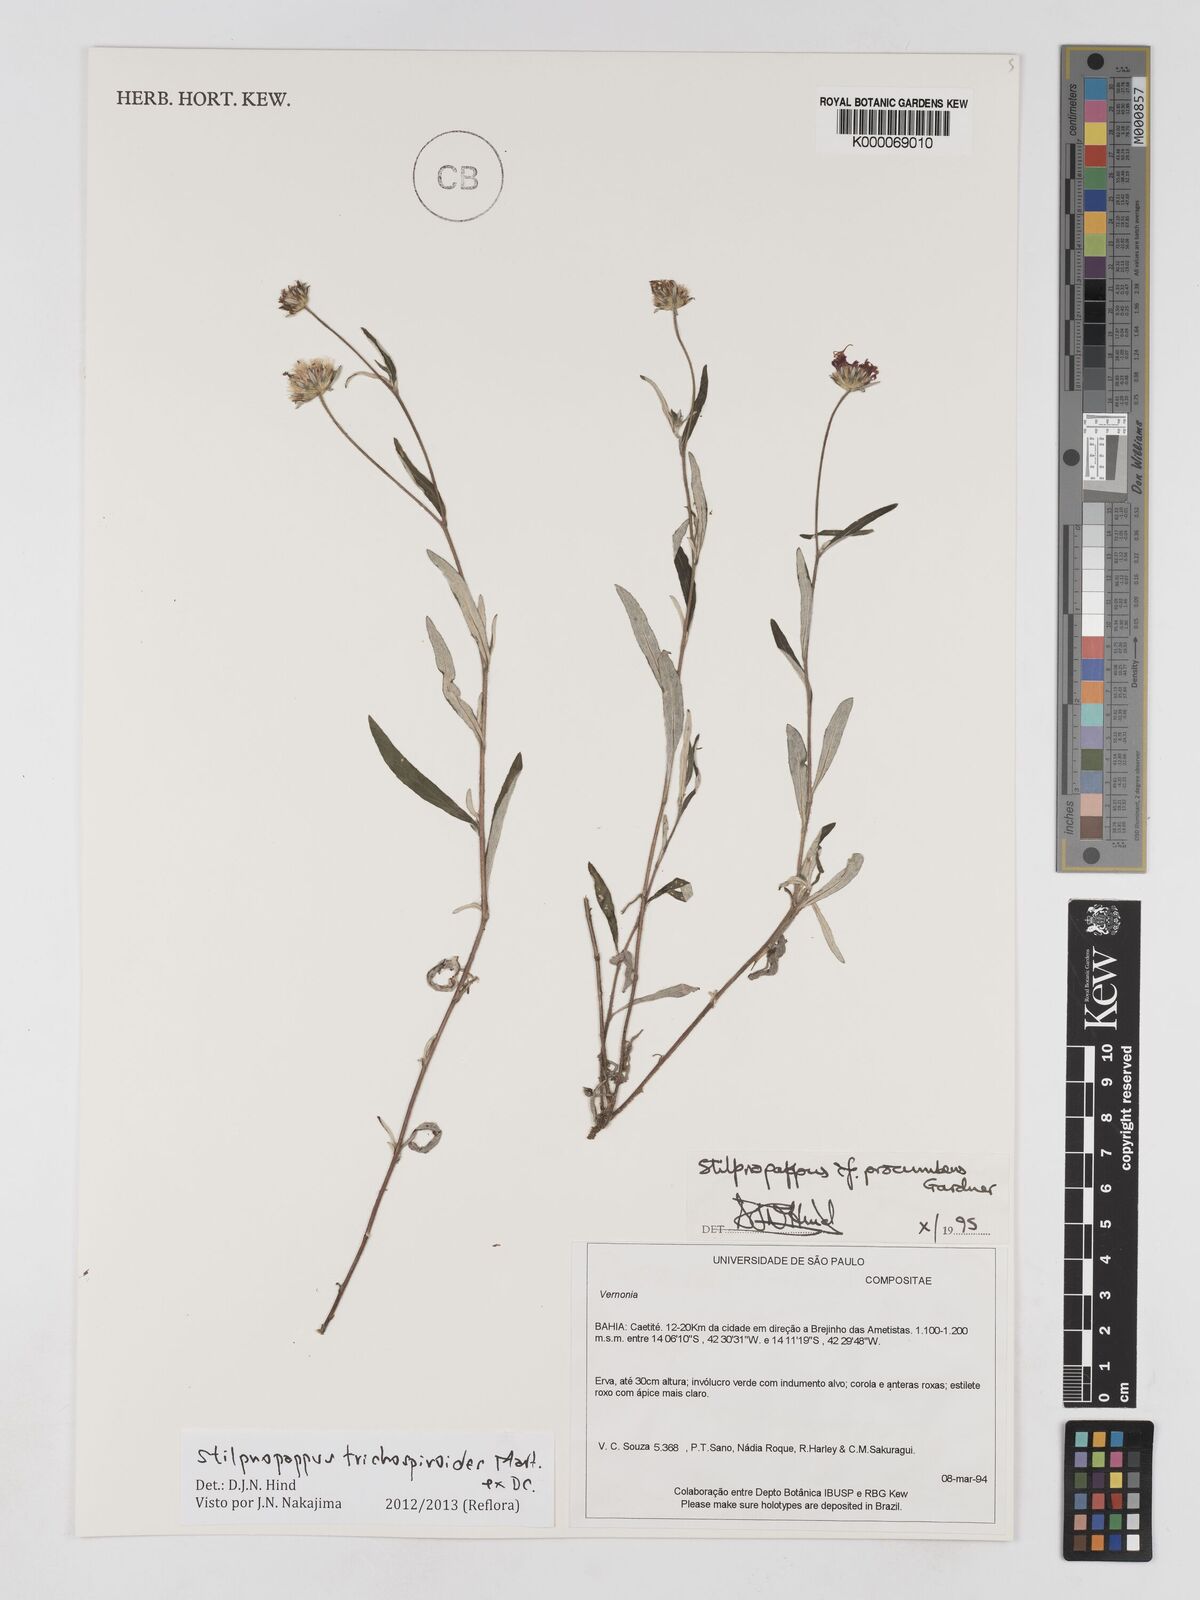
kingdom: Plantae
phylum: Tracheophyta
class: Magnoliopsida
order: Asterales
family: Asteraceae
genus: Stilpnopappus
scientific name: Stilpnopappus trichospiroides
